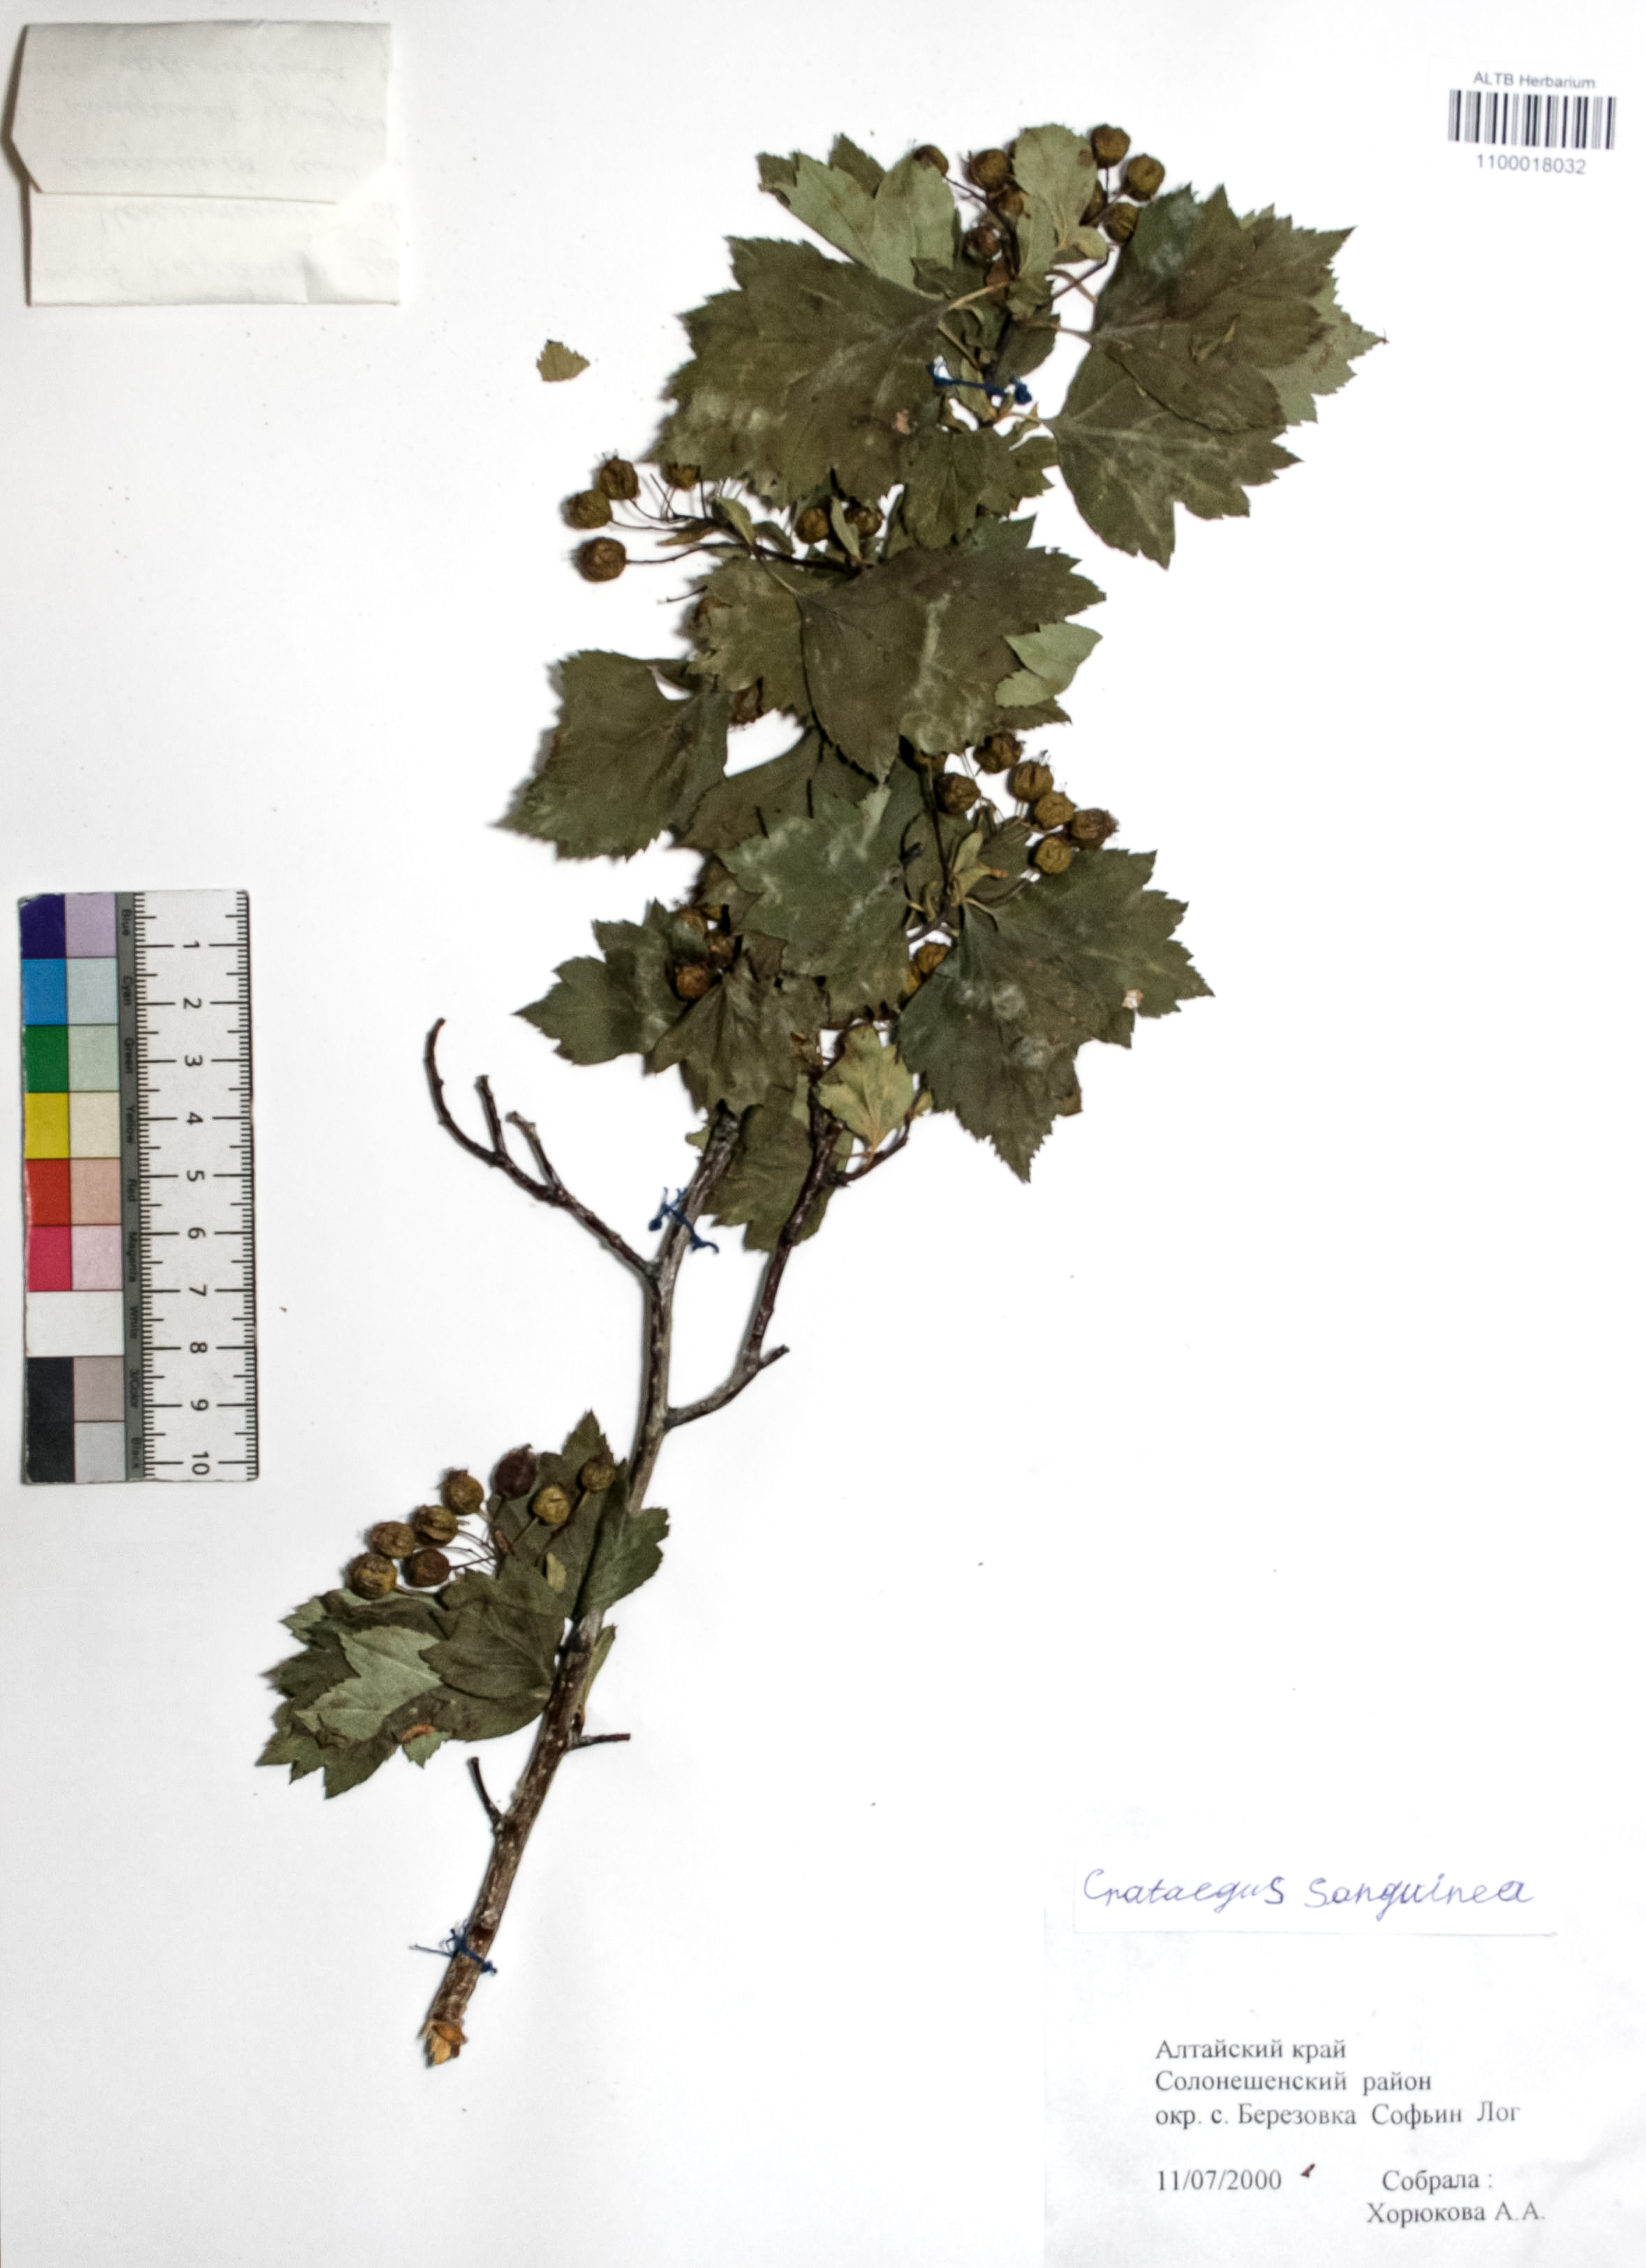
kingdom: Plantae
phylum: Tracheophyta
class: Magnoliopsida
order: Rosales
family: Rosaceae
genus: Crataegus
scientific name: Crataegus sanguinea
